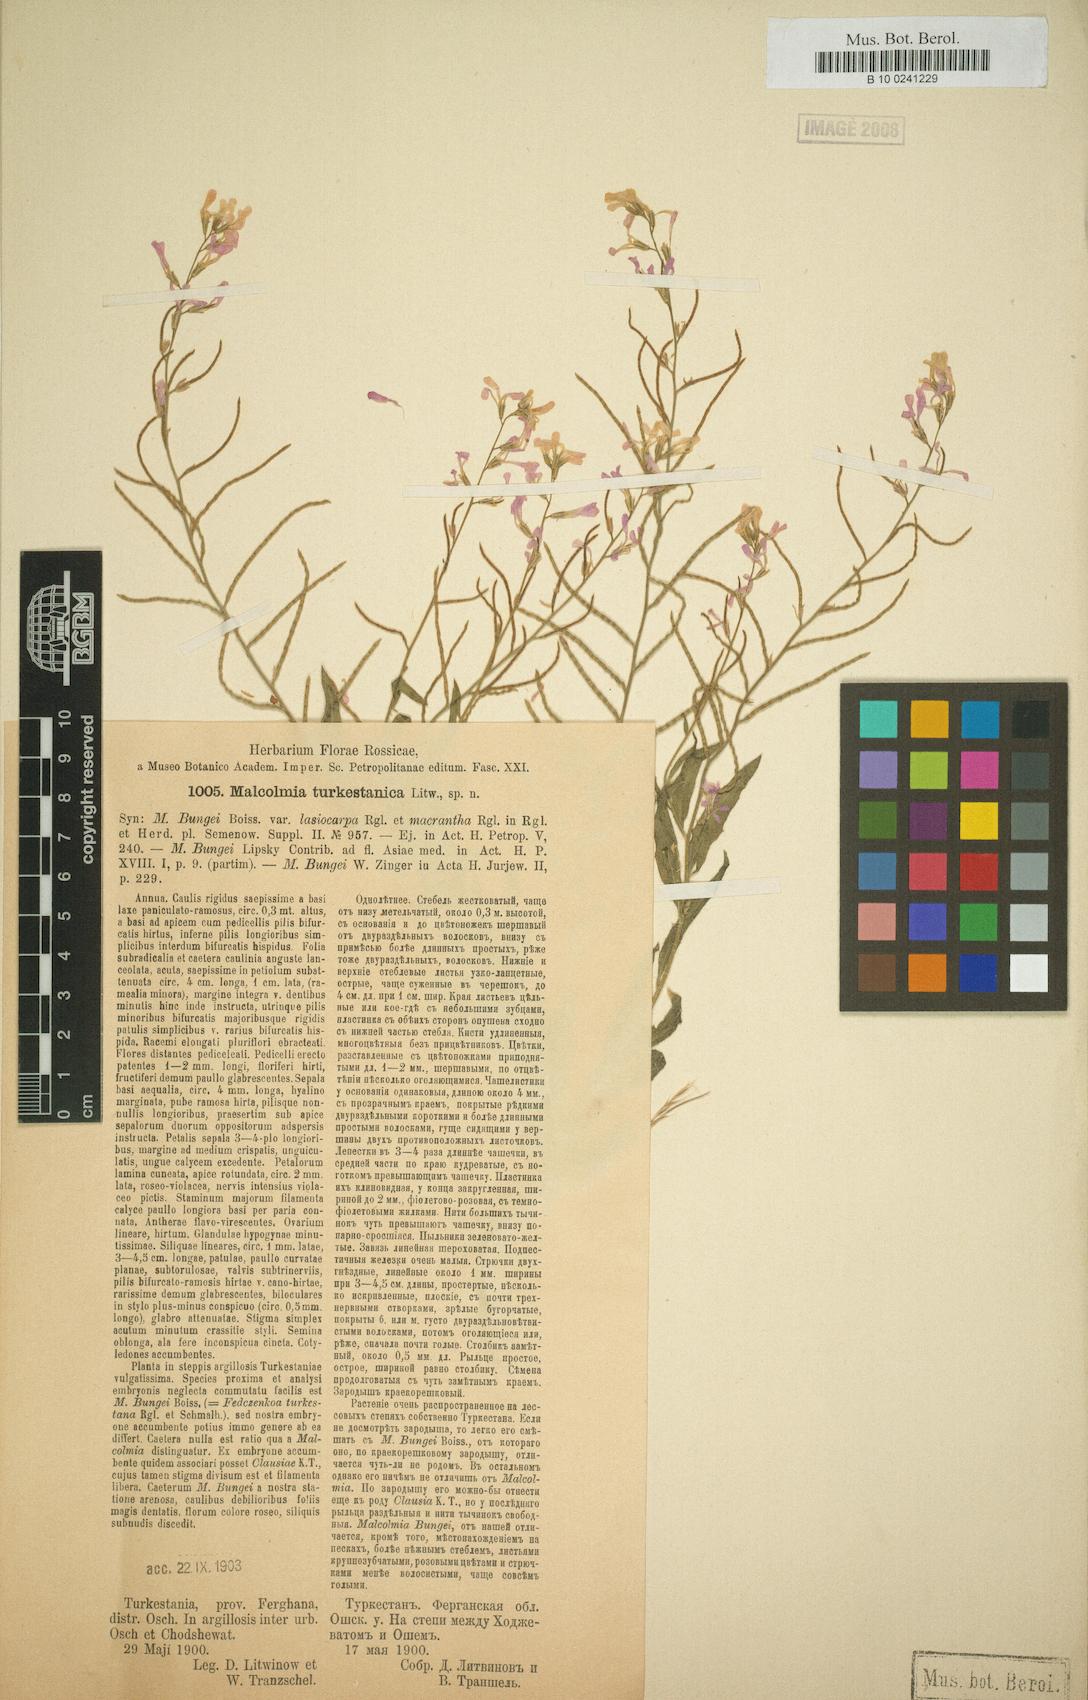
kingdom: Plantae
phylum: Tracheophyta
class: Magnoliopsida
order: Brassicales
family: Brassicaceae
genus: Strigosella
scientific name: Strigosella turkestanica
